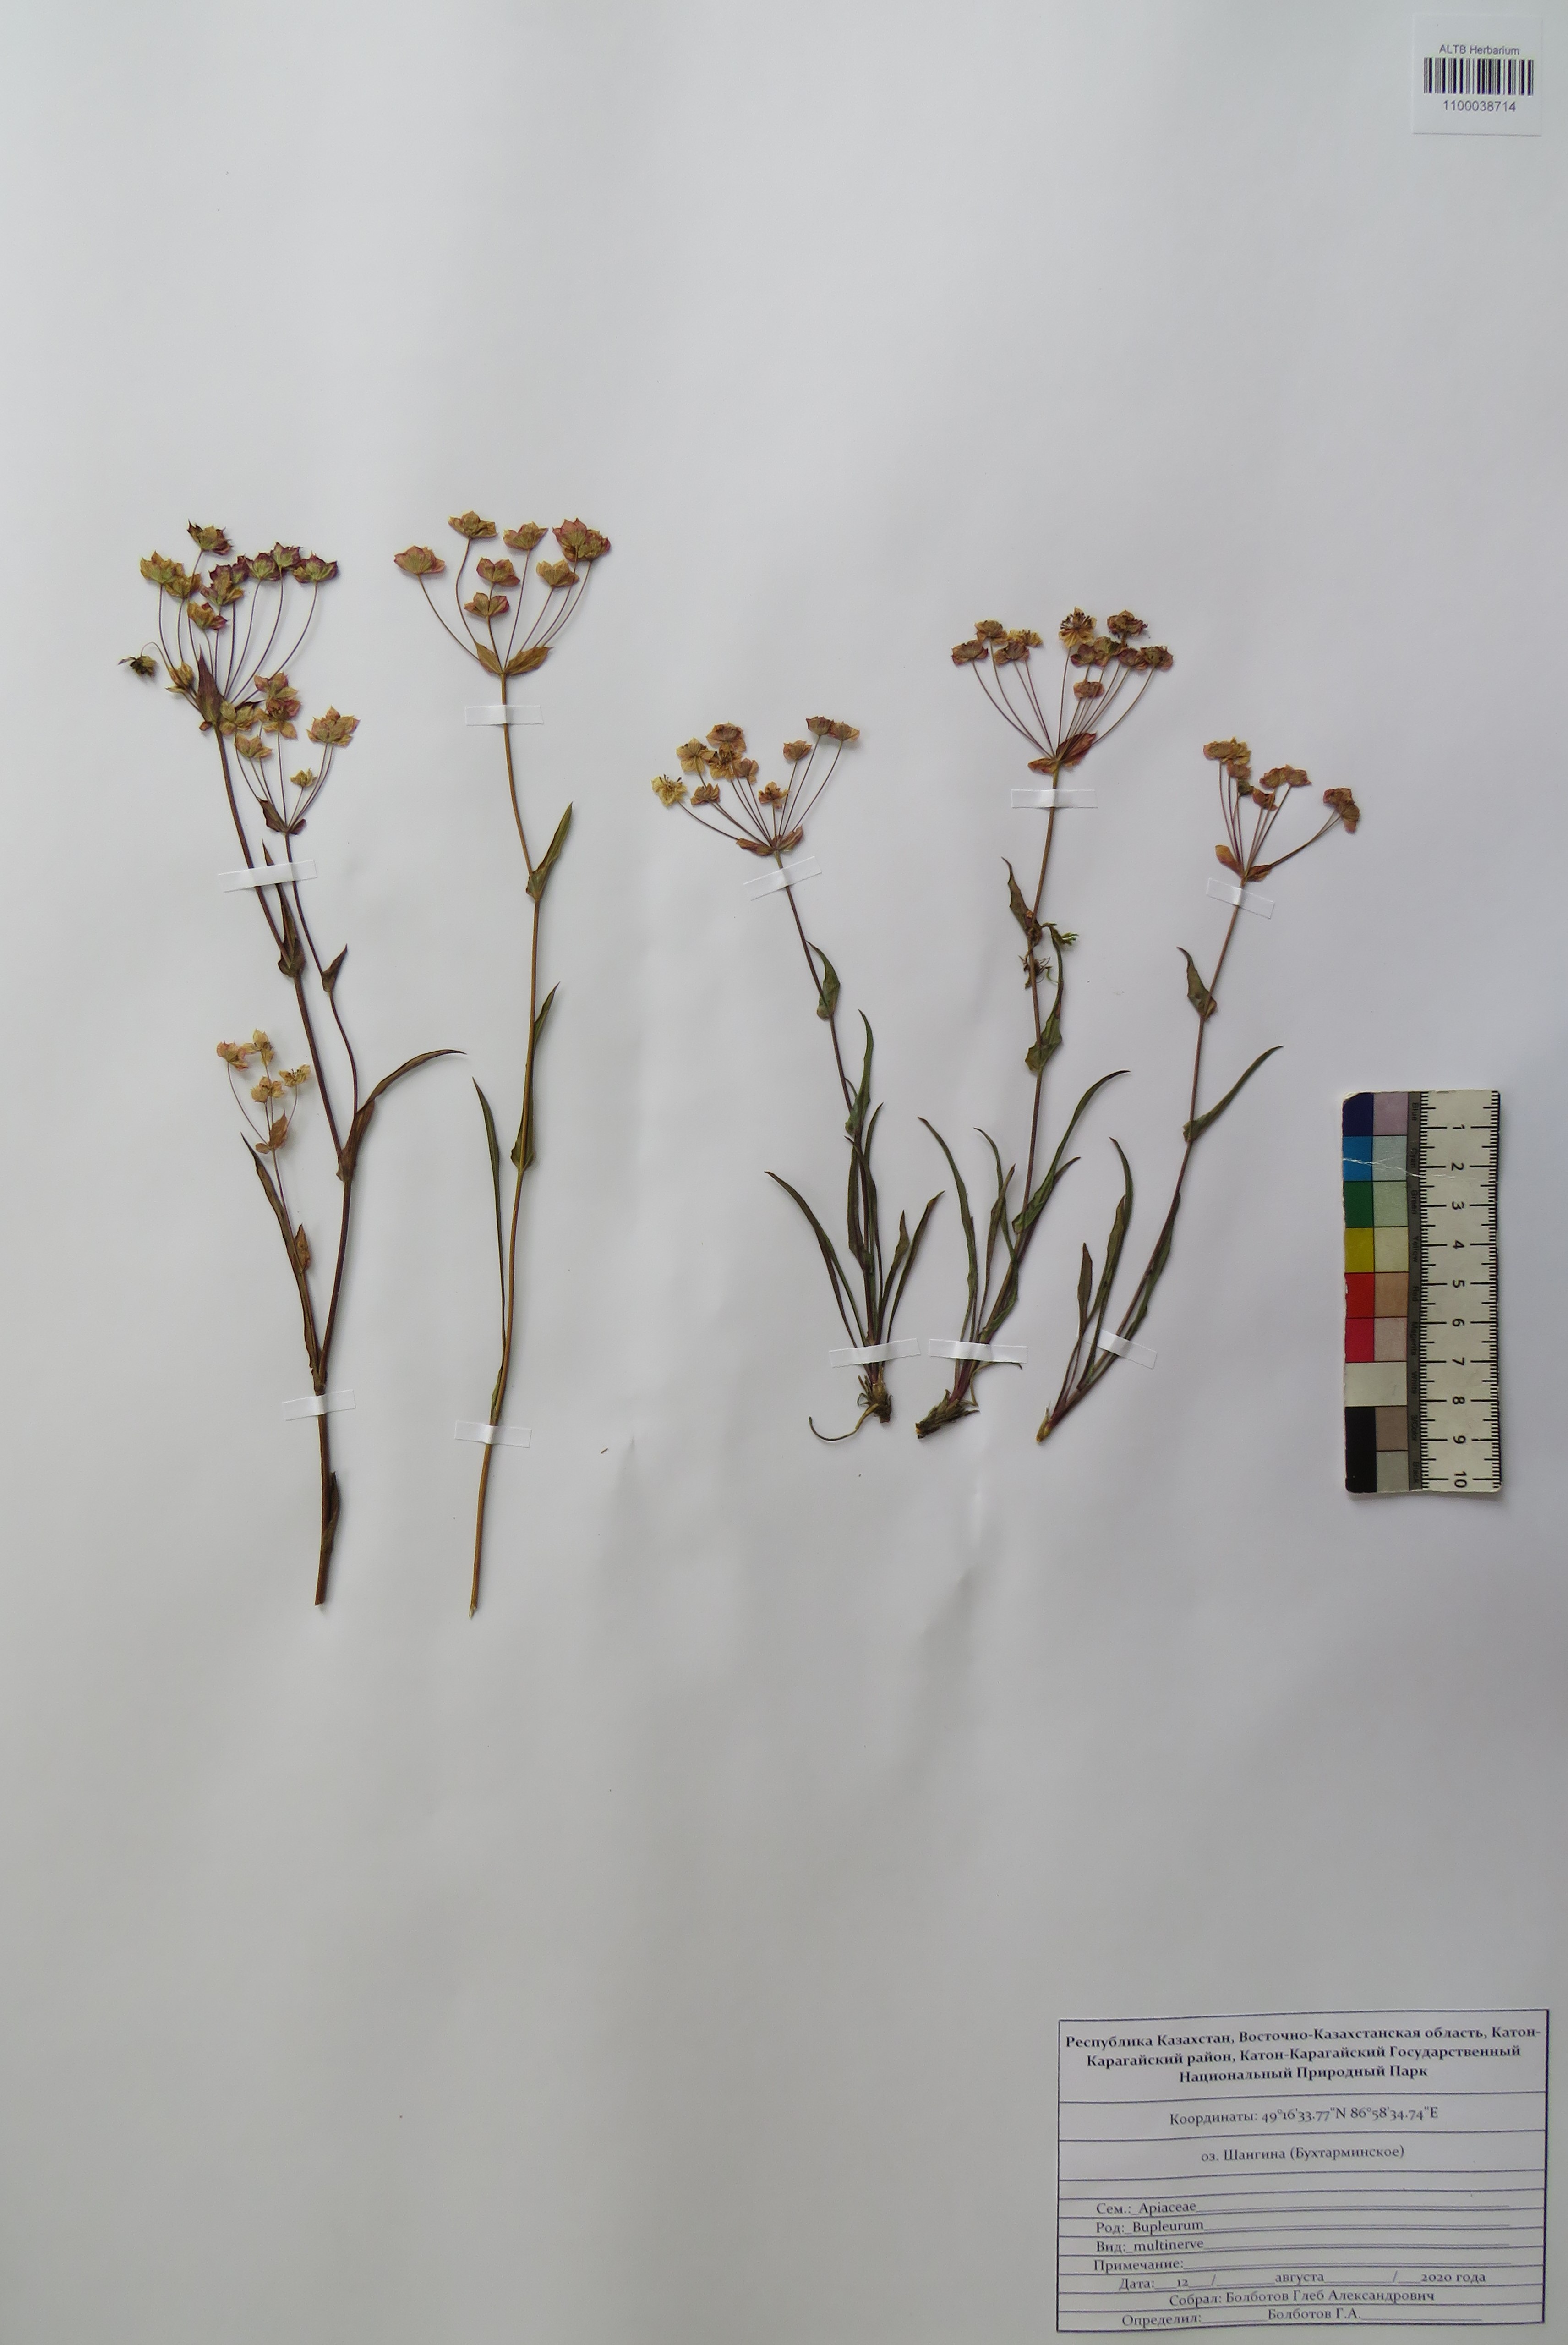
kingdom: Plantae
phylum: Tracheophyta
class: Magnoliopsida
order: Apiales
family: Apiaceae
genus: Bupleurum
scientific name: Bupleurum multinerve
